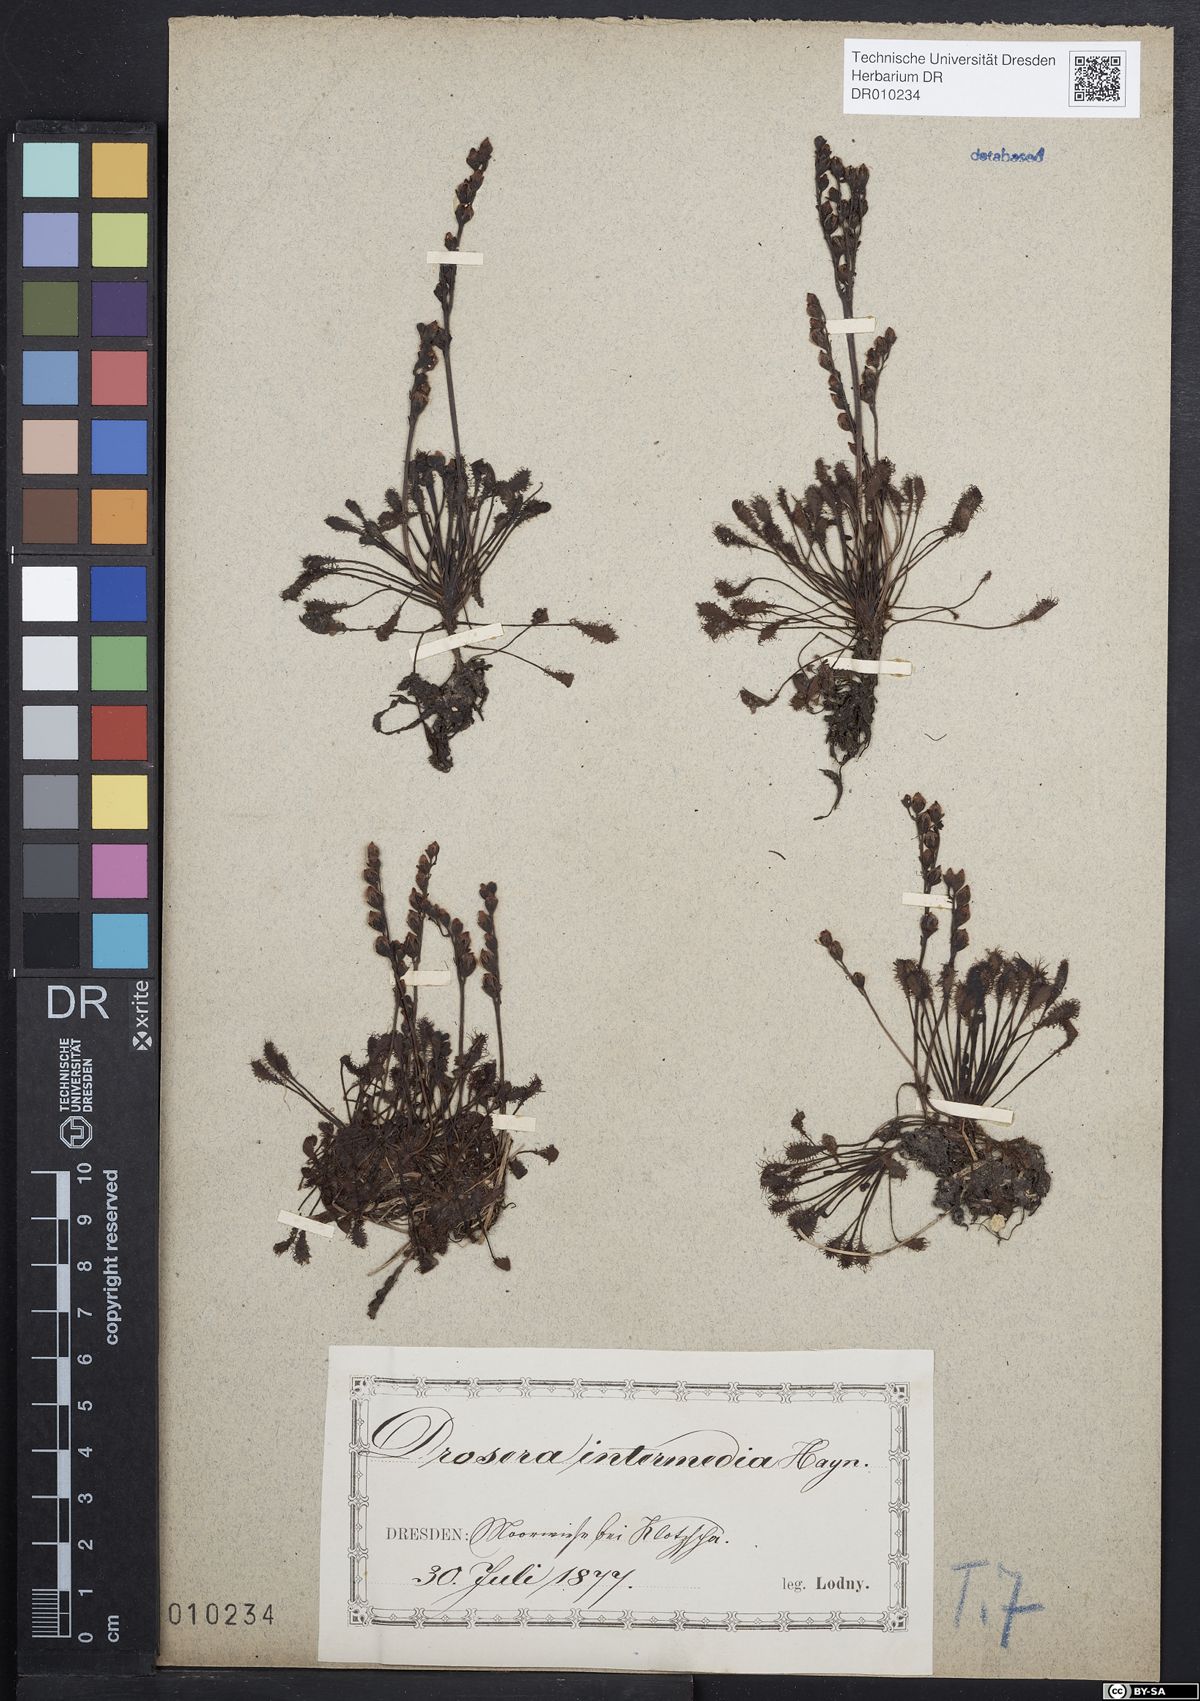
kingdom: Plantae
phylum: Tracheophyta
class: Magnoliopsida
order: Caryophyllales
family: Droseraceae
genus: Drosera
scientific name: Drosera intermedia
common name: Oblong-leaved sundew
